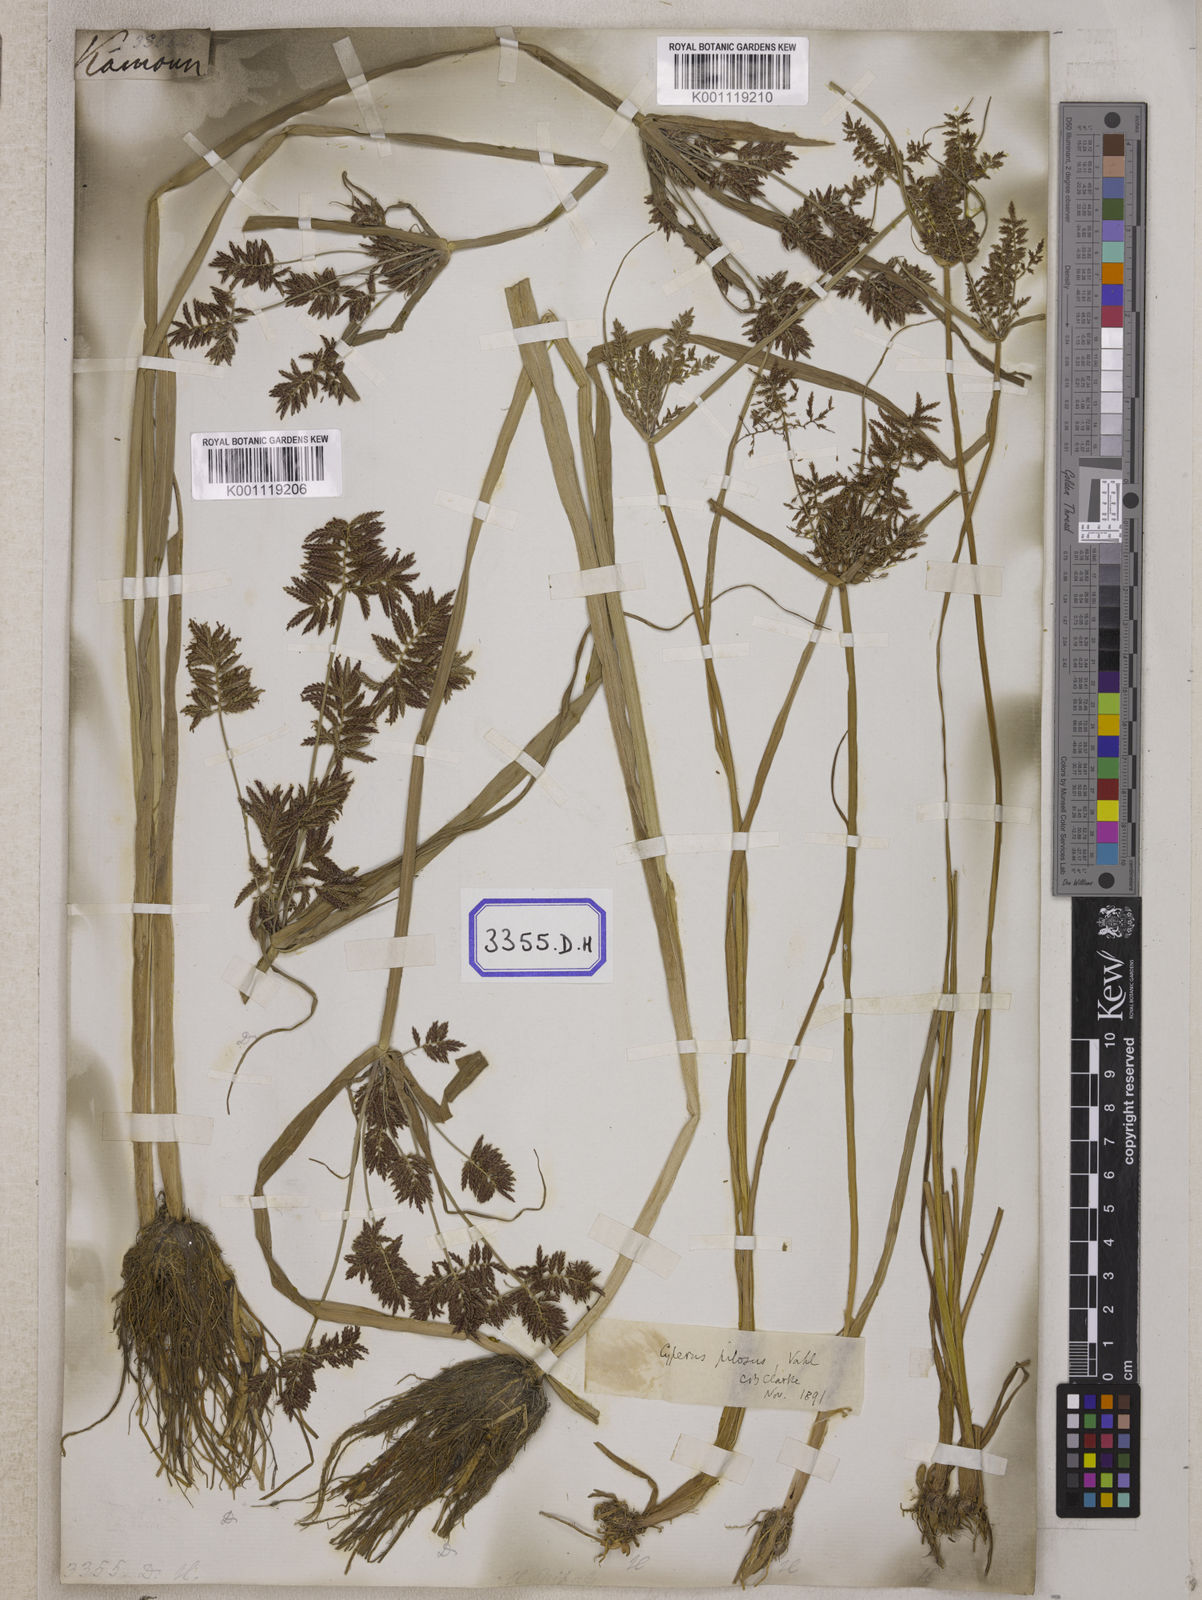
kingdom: Plantae
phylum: Tracheophyta
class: Liliopsida
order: Poales
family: Cyperaceae
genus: Cyperus
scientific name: Cyperus
